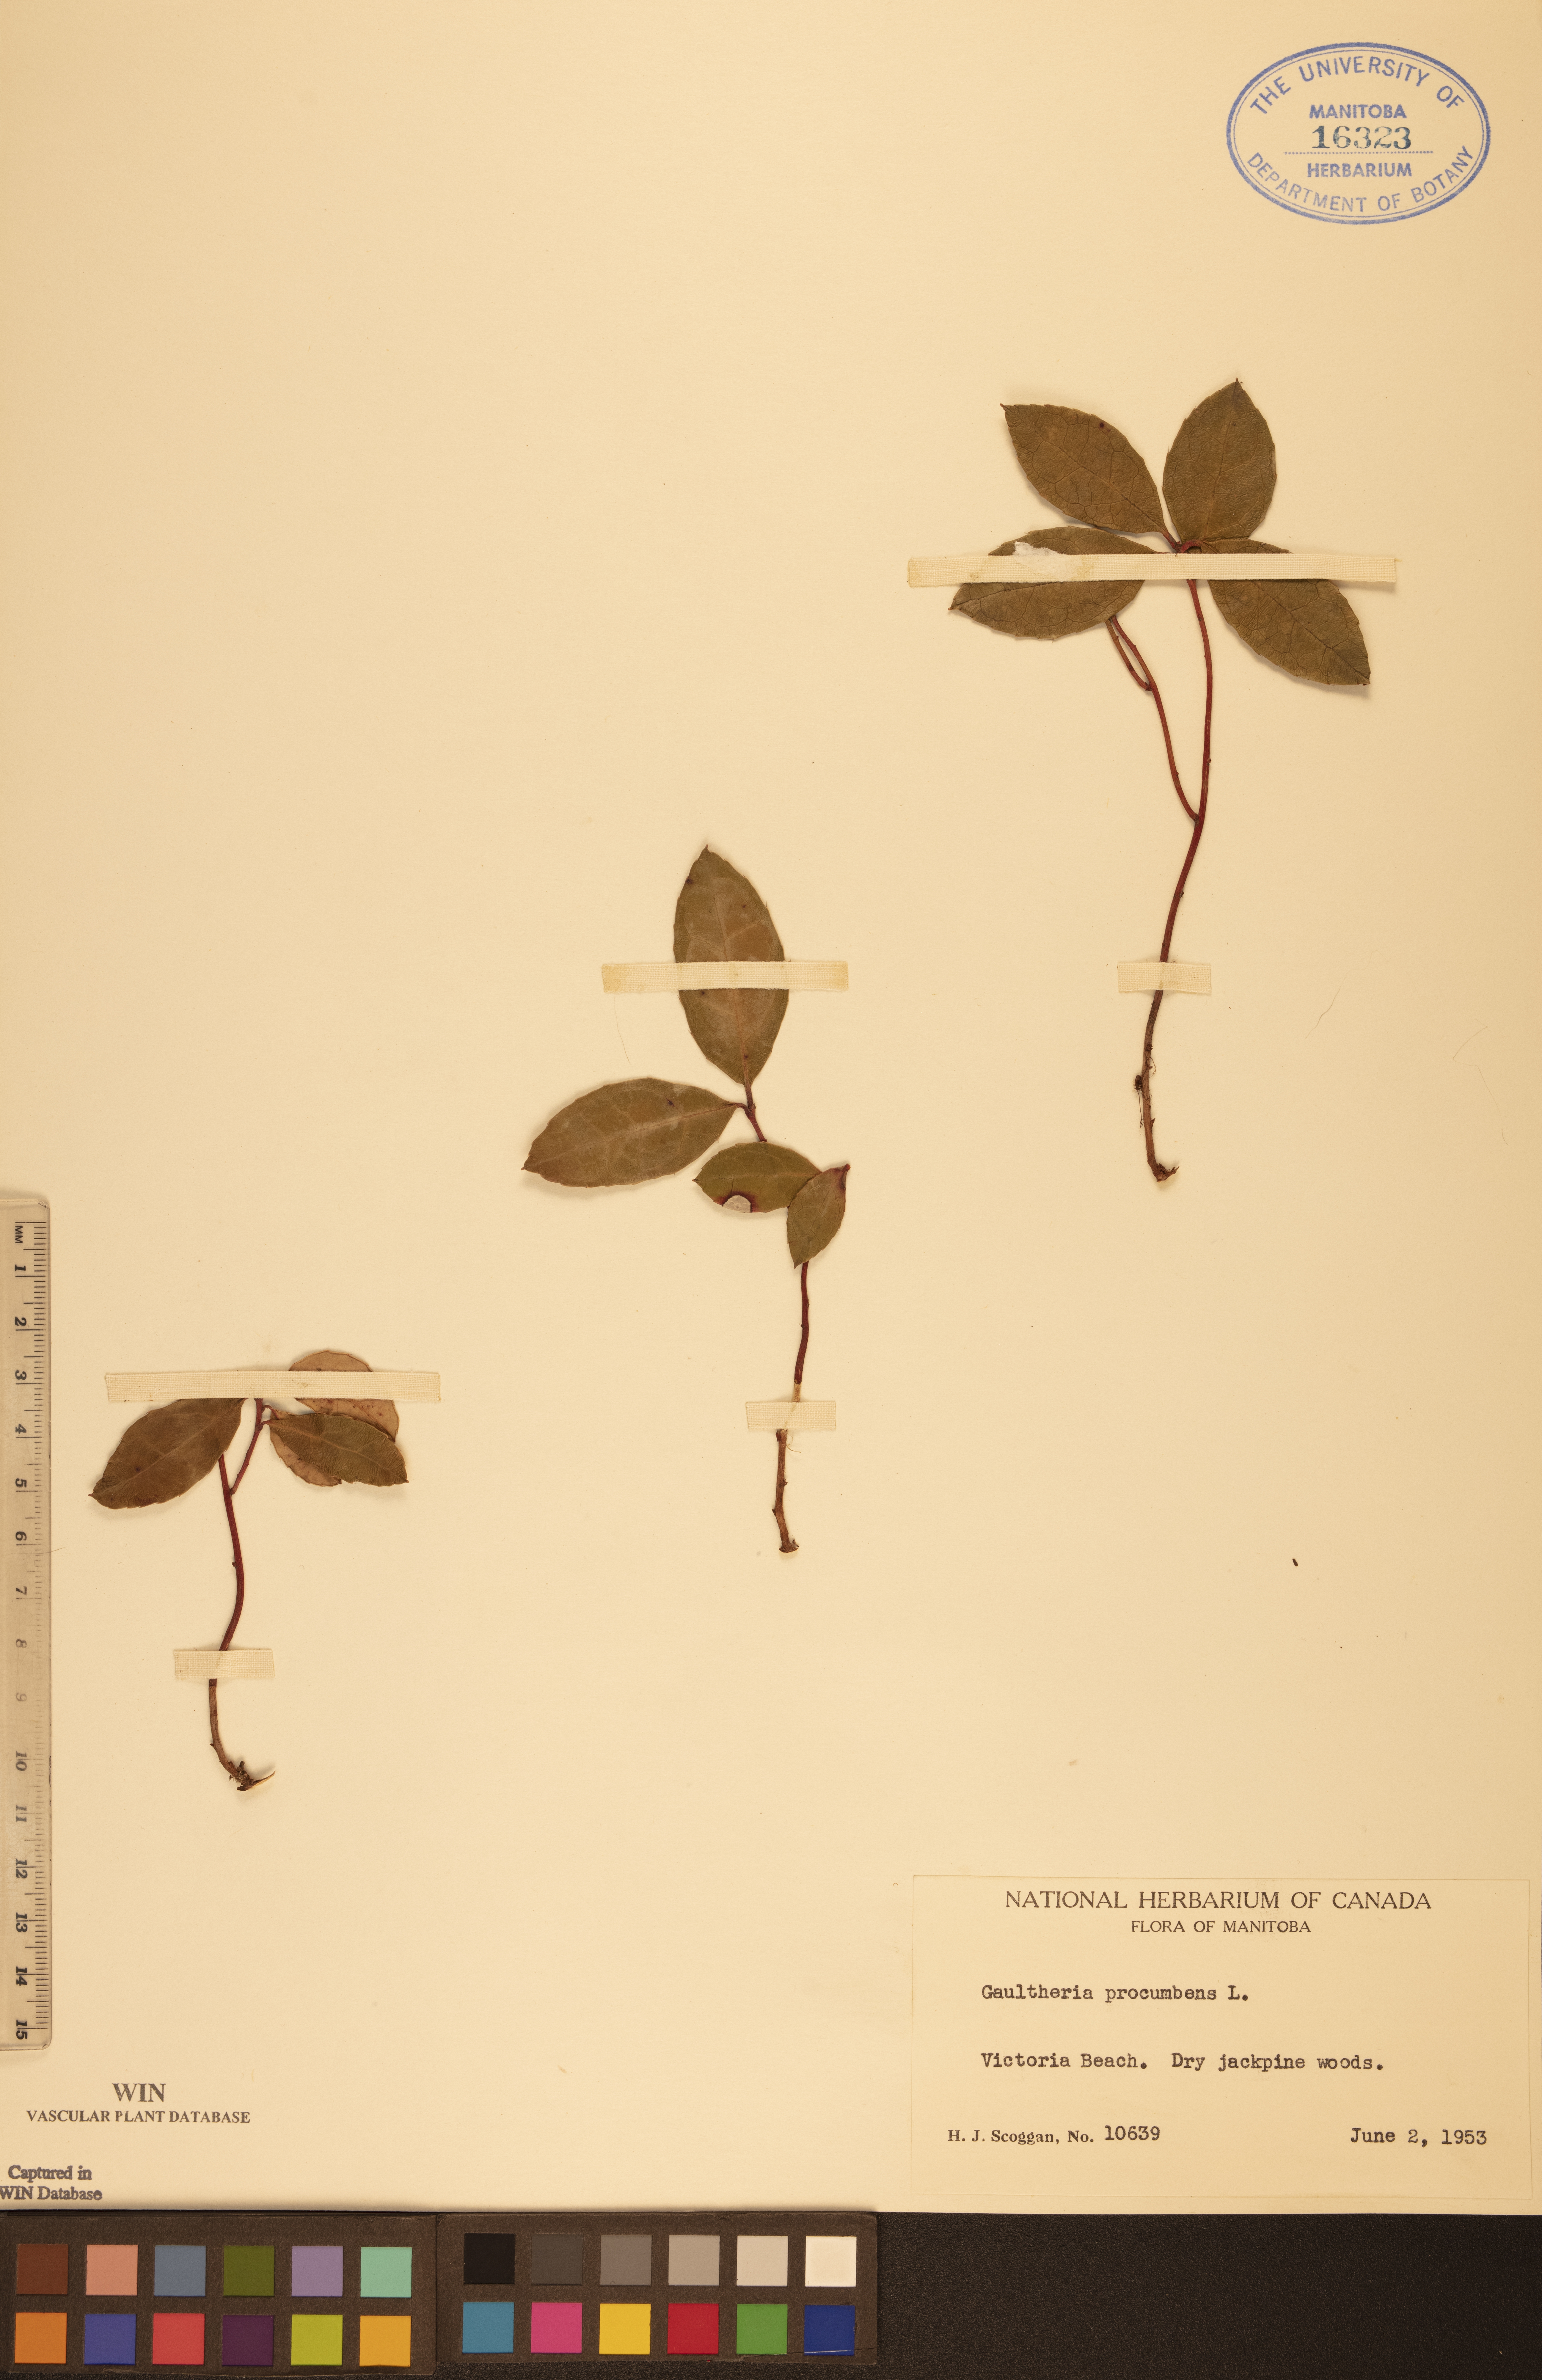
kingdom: Plantae
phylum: Tracheophyta
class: Magnoliopsida
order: Ericales
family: Ericaceae
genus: Gaultheria
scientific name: Gaultheria procumbens
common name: Checkerberry
